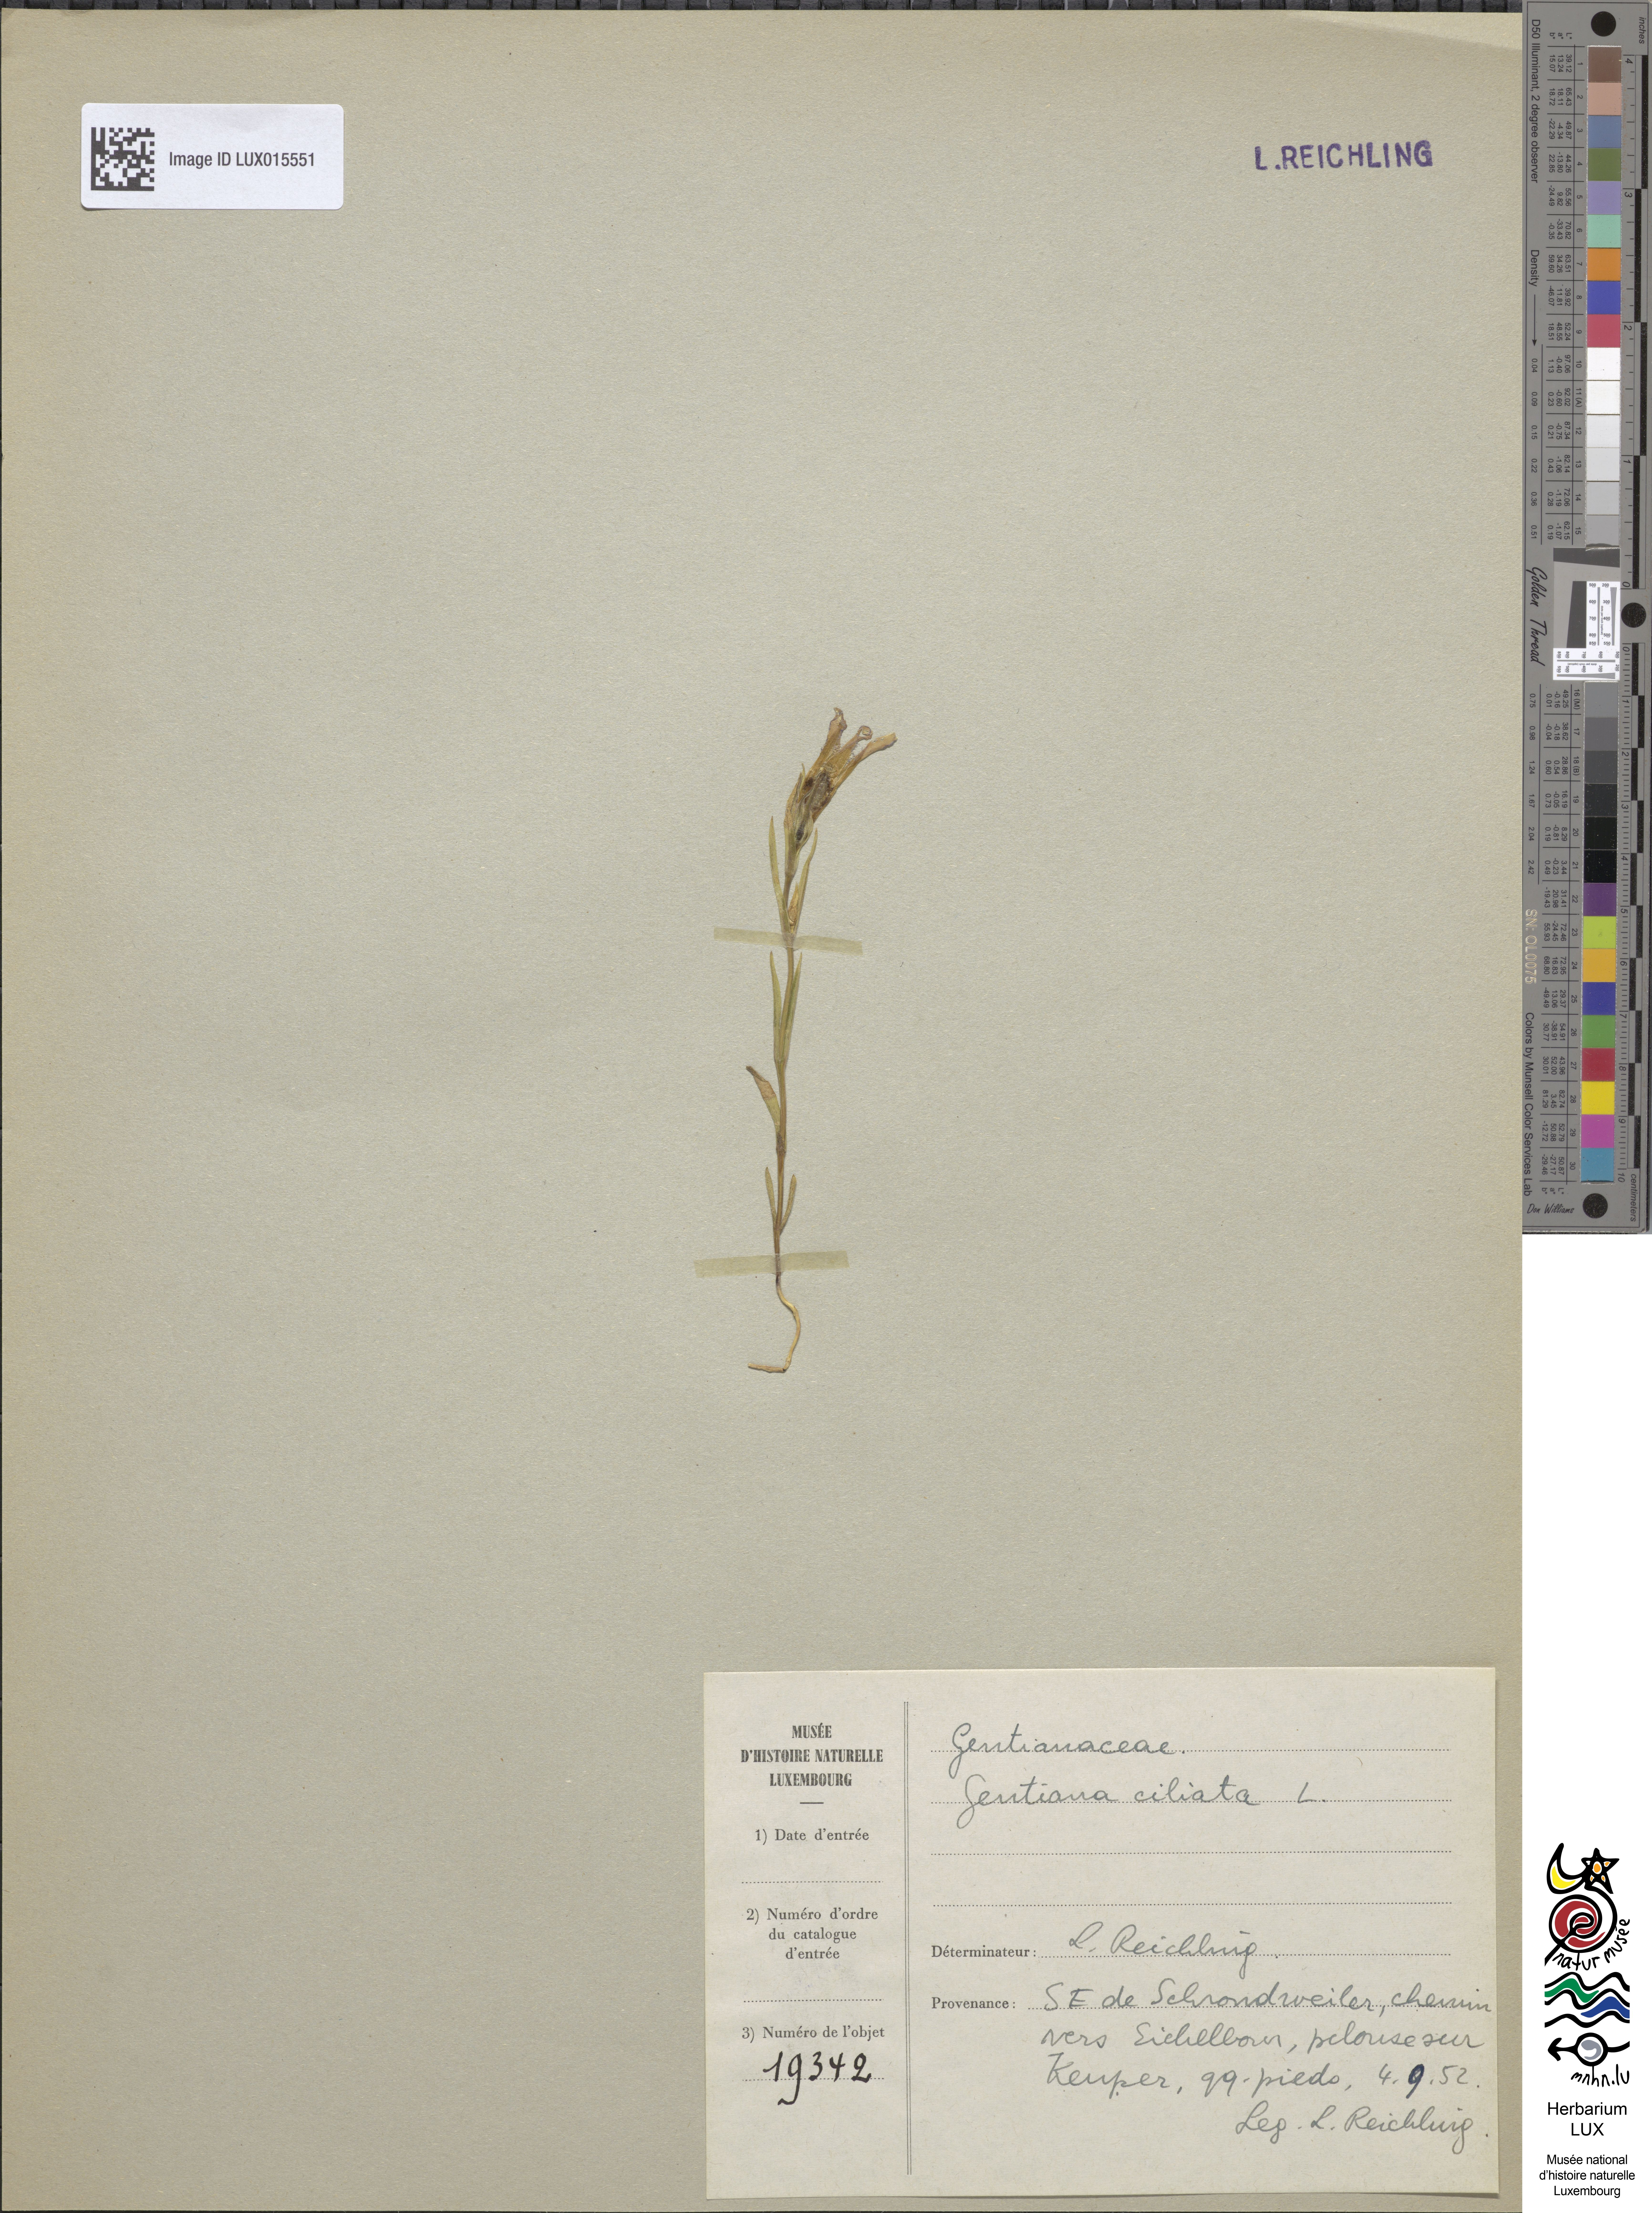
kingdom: Plantae
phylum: Tracheophyta
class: Magnoliopsida
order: Gentianales
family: Gentianaceae
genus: Gentianopsis
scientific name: Gentianopsis ciliata
